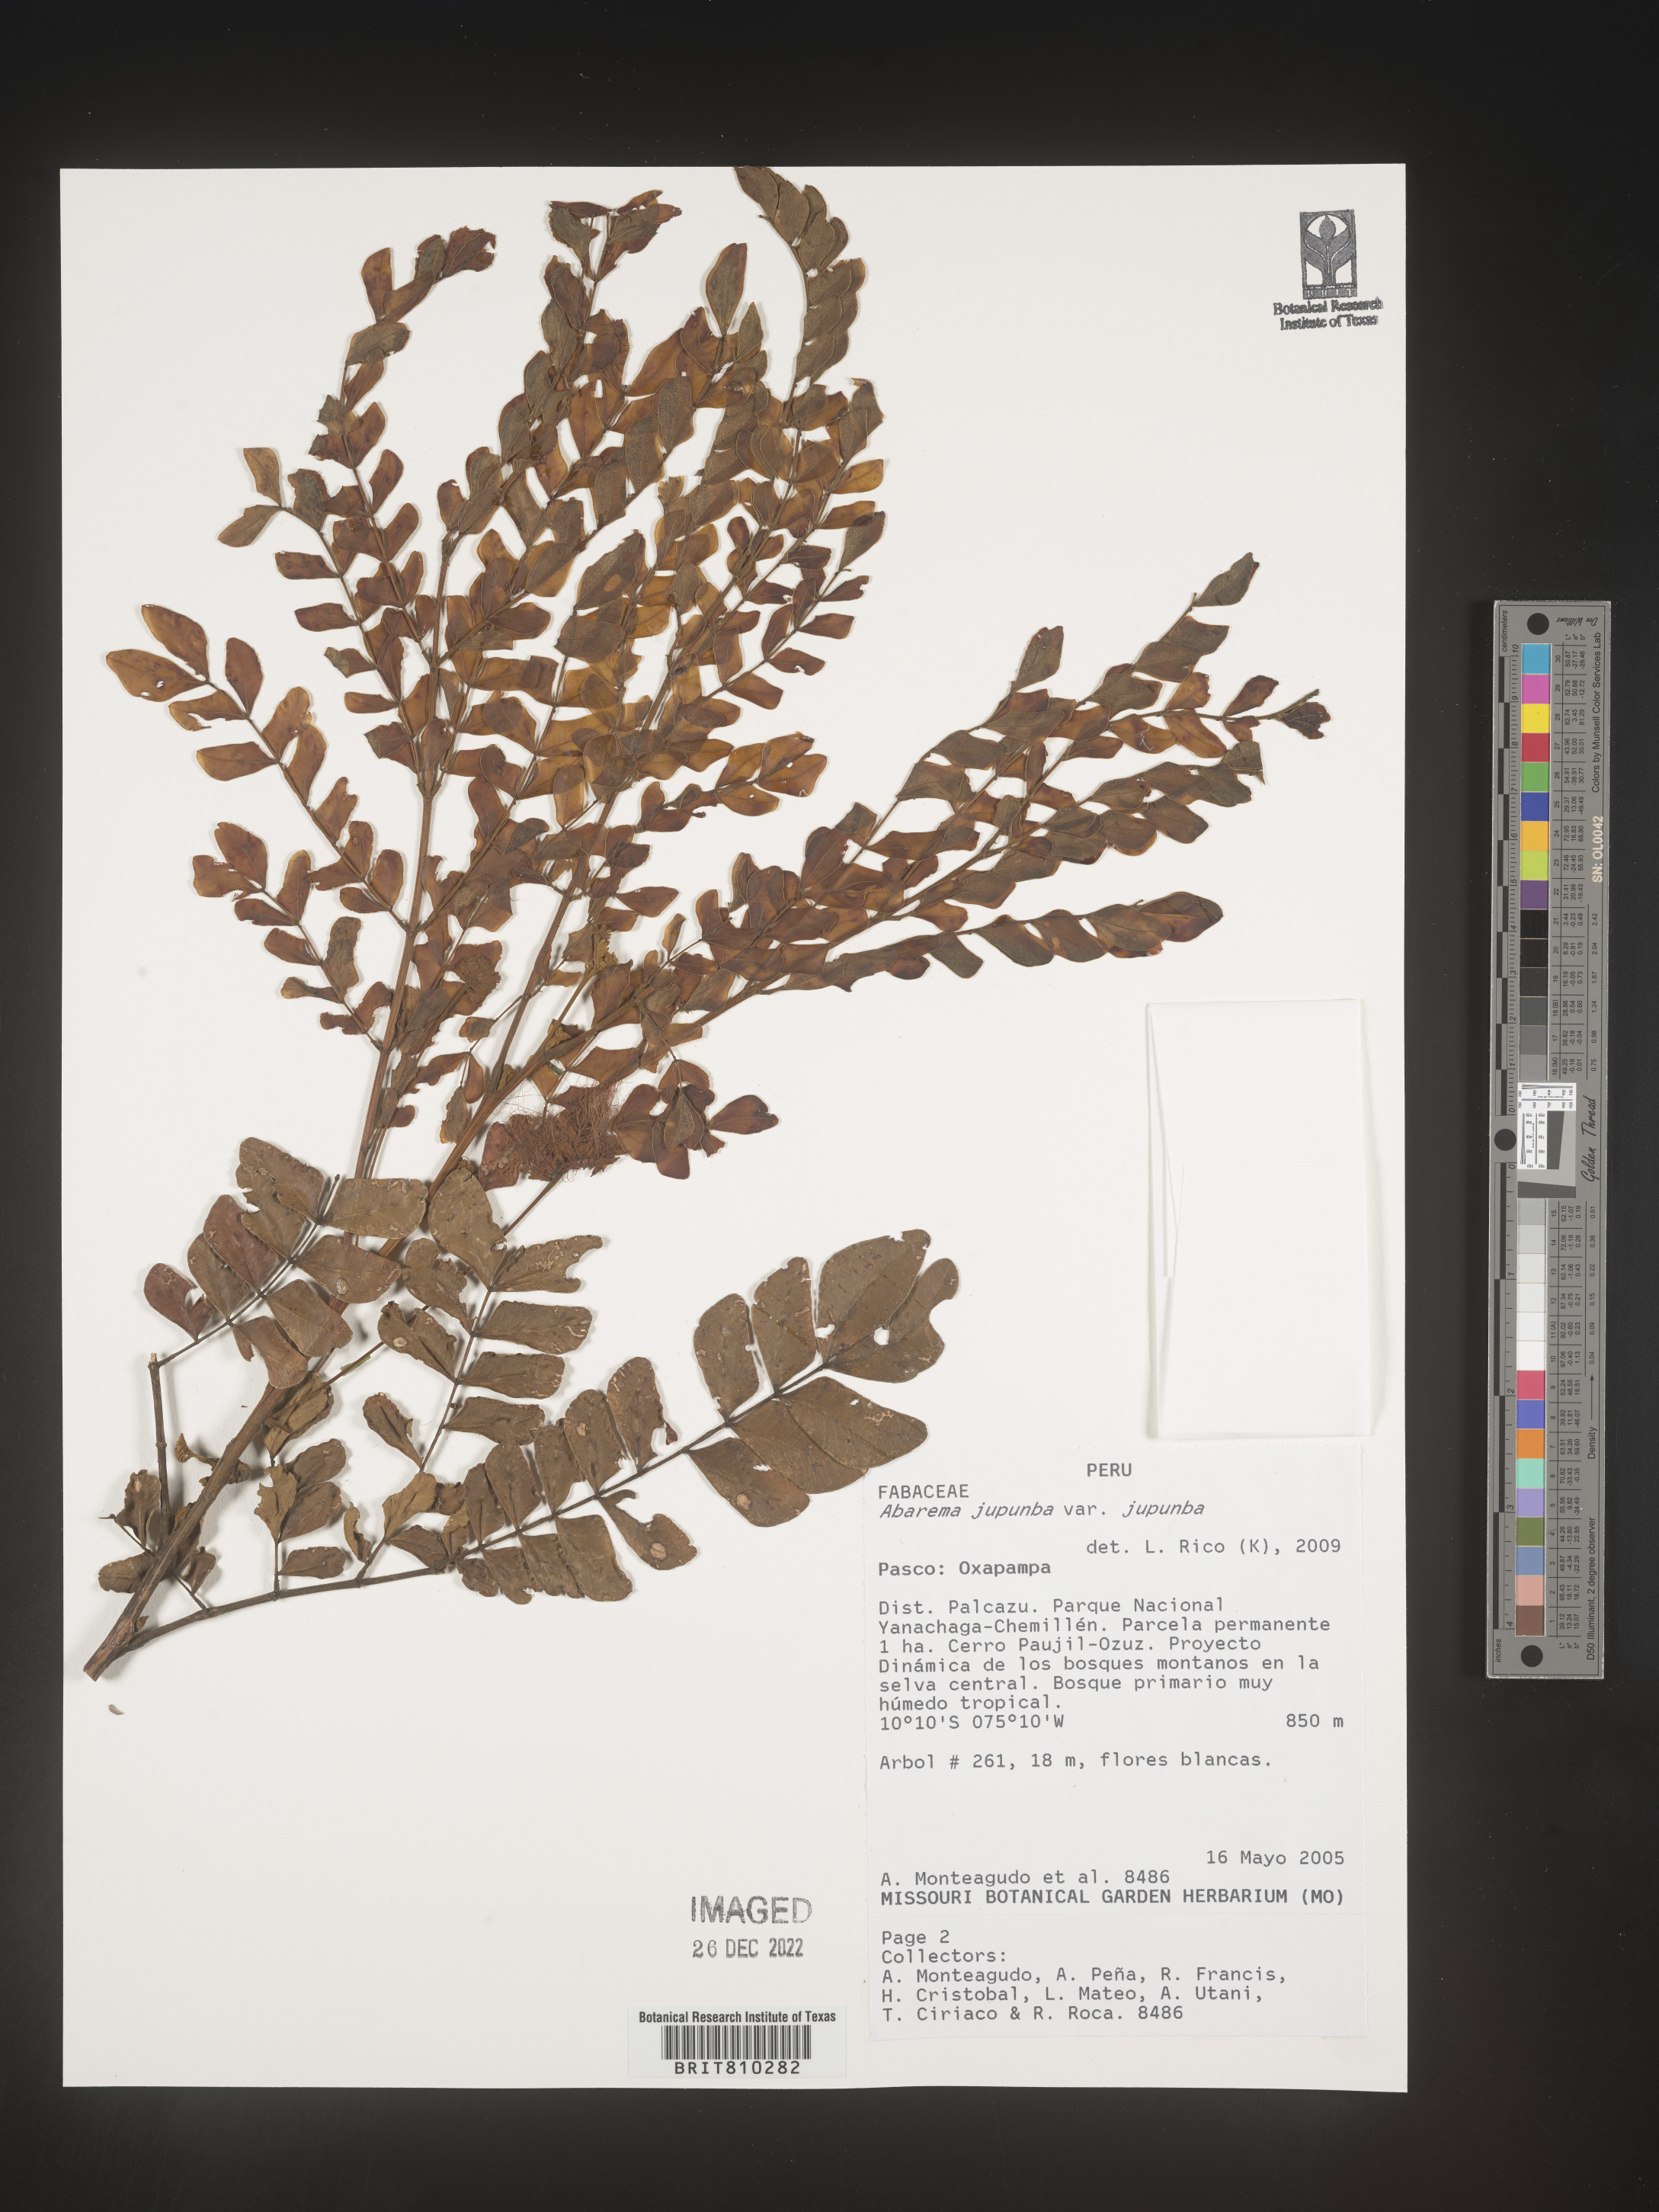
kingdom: Plantae
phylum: Tracheophyta
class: Magnoliopsida
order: Fabales
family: Fabaceae
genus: Abarema
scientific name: Abarema
